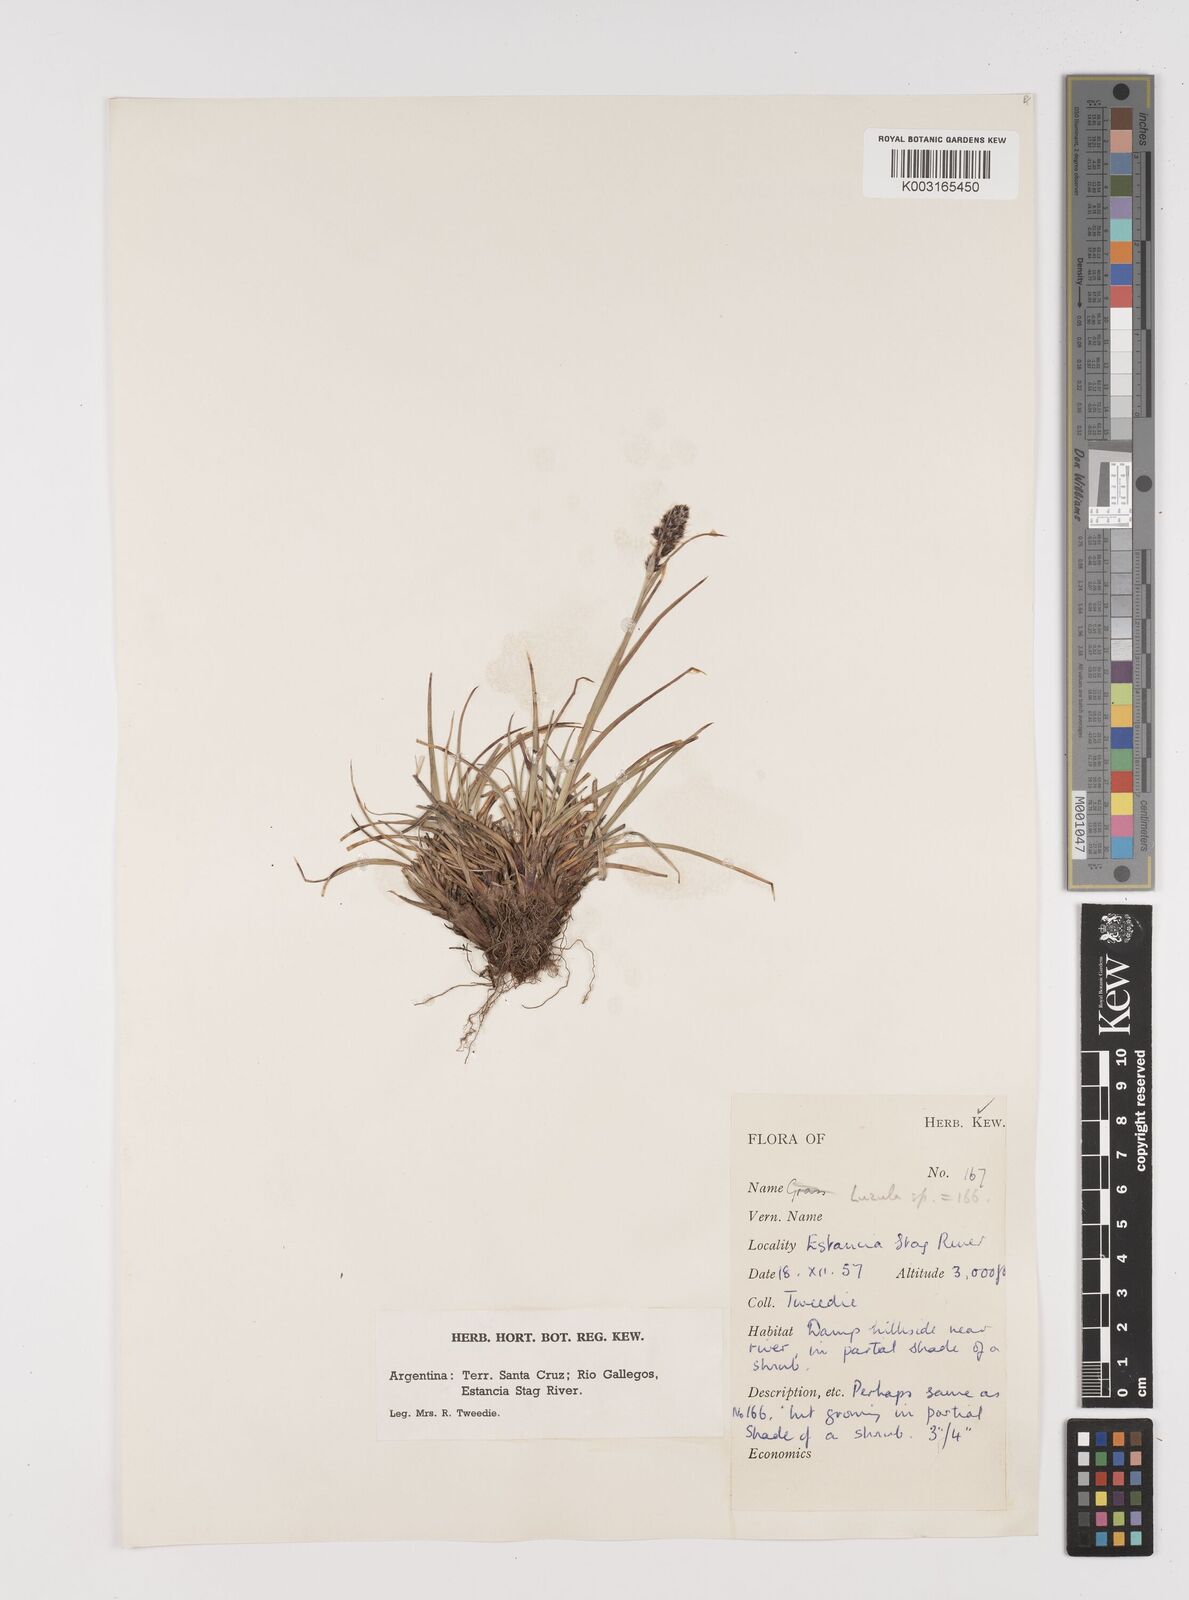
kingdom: Plantae
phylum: Tracheophyta
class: Liliopsida
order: Poales
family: Juncaceae
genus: Luzula
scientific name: Luzula
